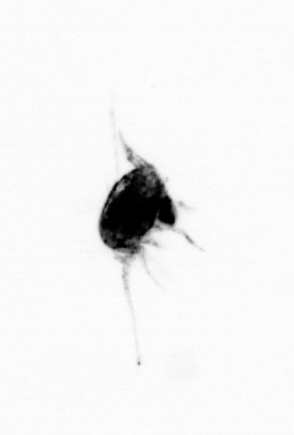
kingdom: Animalia
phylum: Arthropoda
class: Copepoda
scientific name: Copepoda
